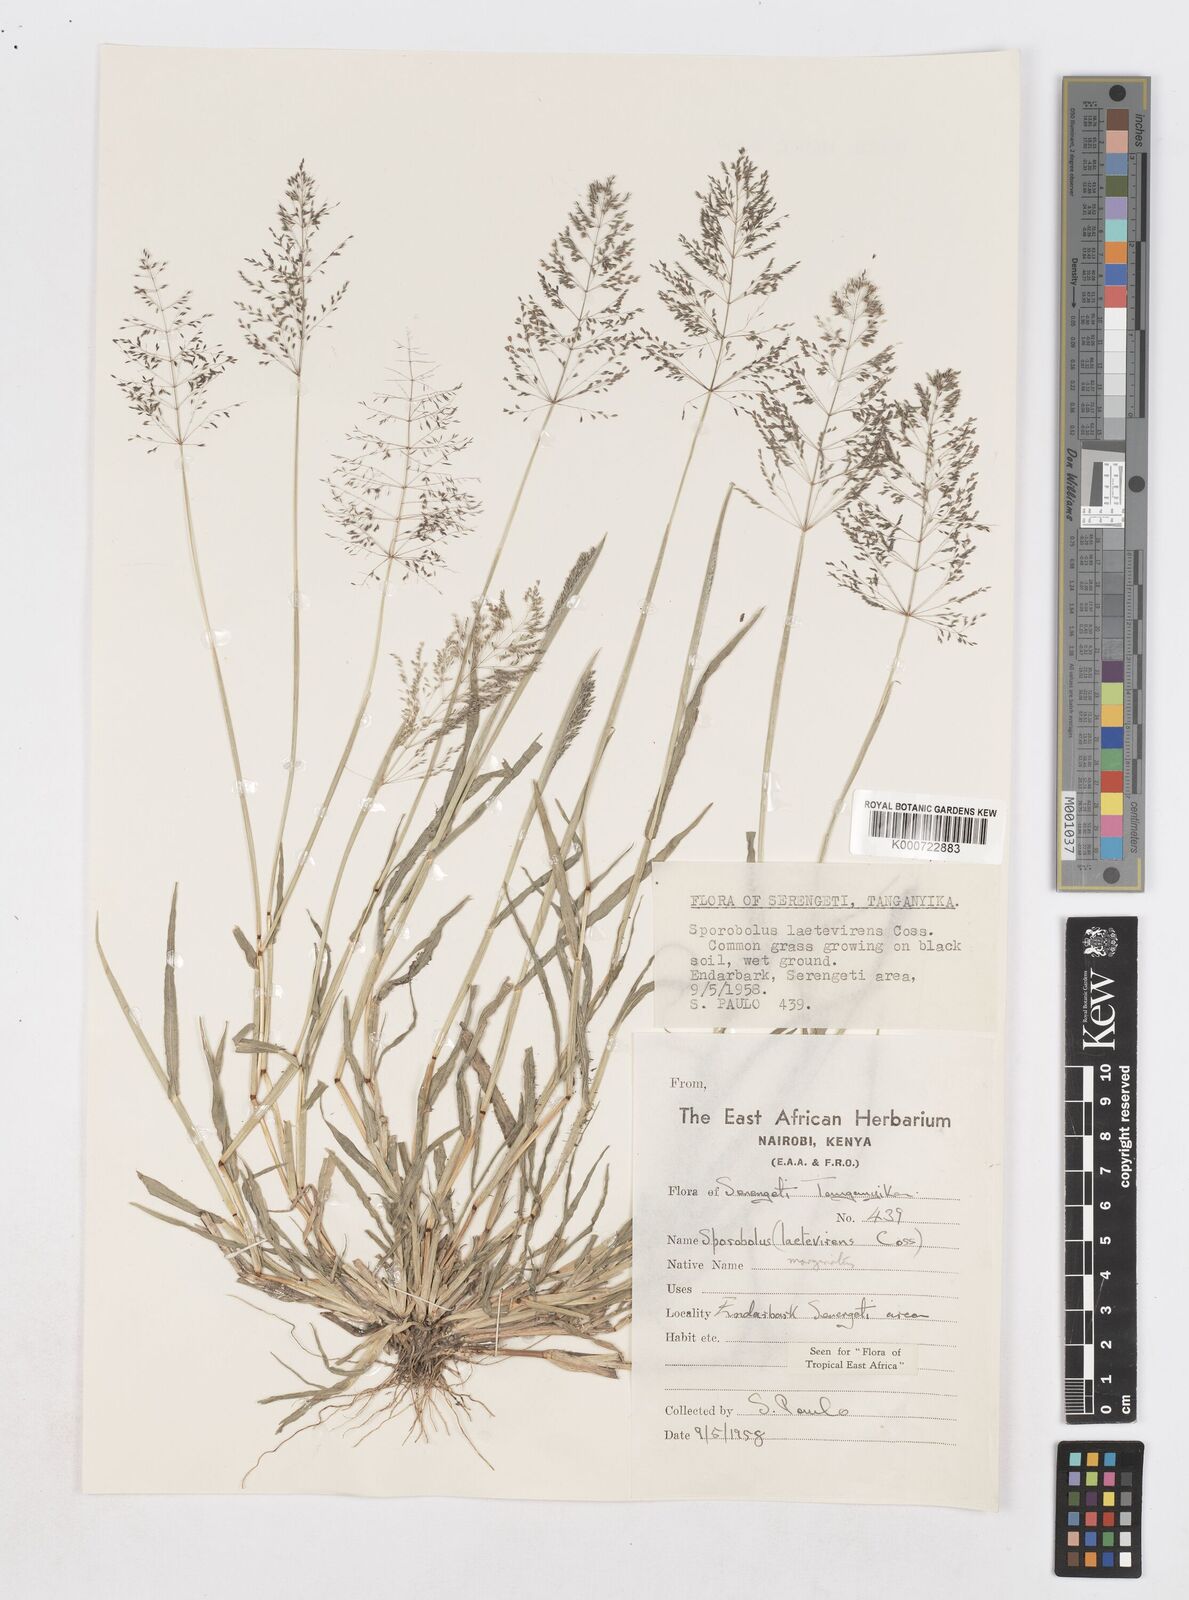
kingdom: Plantae
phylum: Tracheophyta
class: Liliopsida
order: Poales
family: Poaceae
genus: Sporobolus
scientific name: Sporobolus ioclados
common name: Pan dropseed
